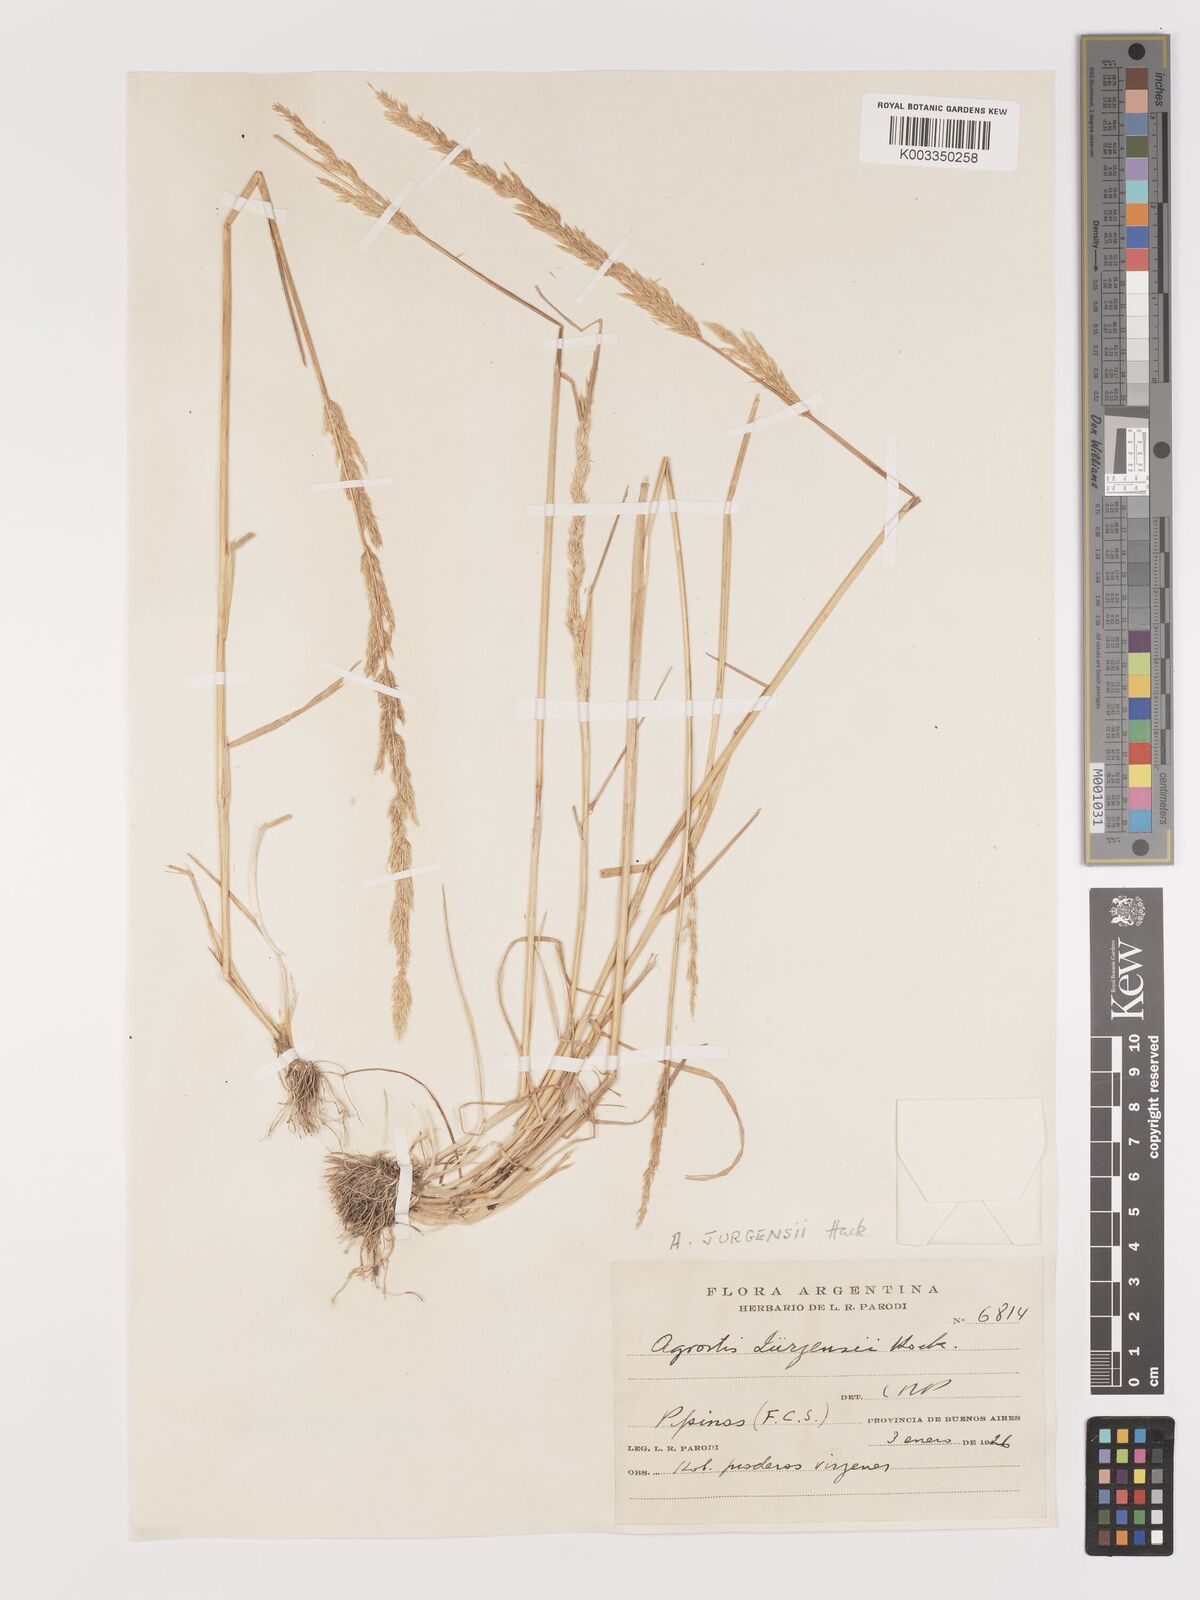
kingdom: Plantae
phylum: Tracheophyta
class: Liliopsida
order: Poales
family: Poaceae
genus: Agrostis
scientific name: Agrostis hygrometrica
